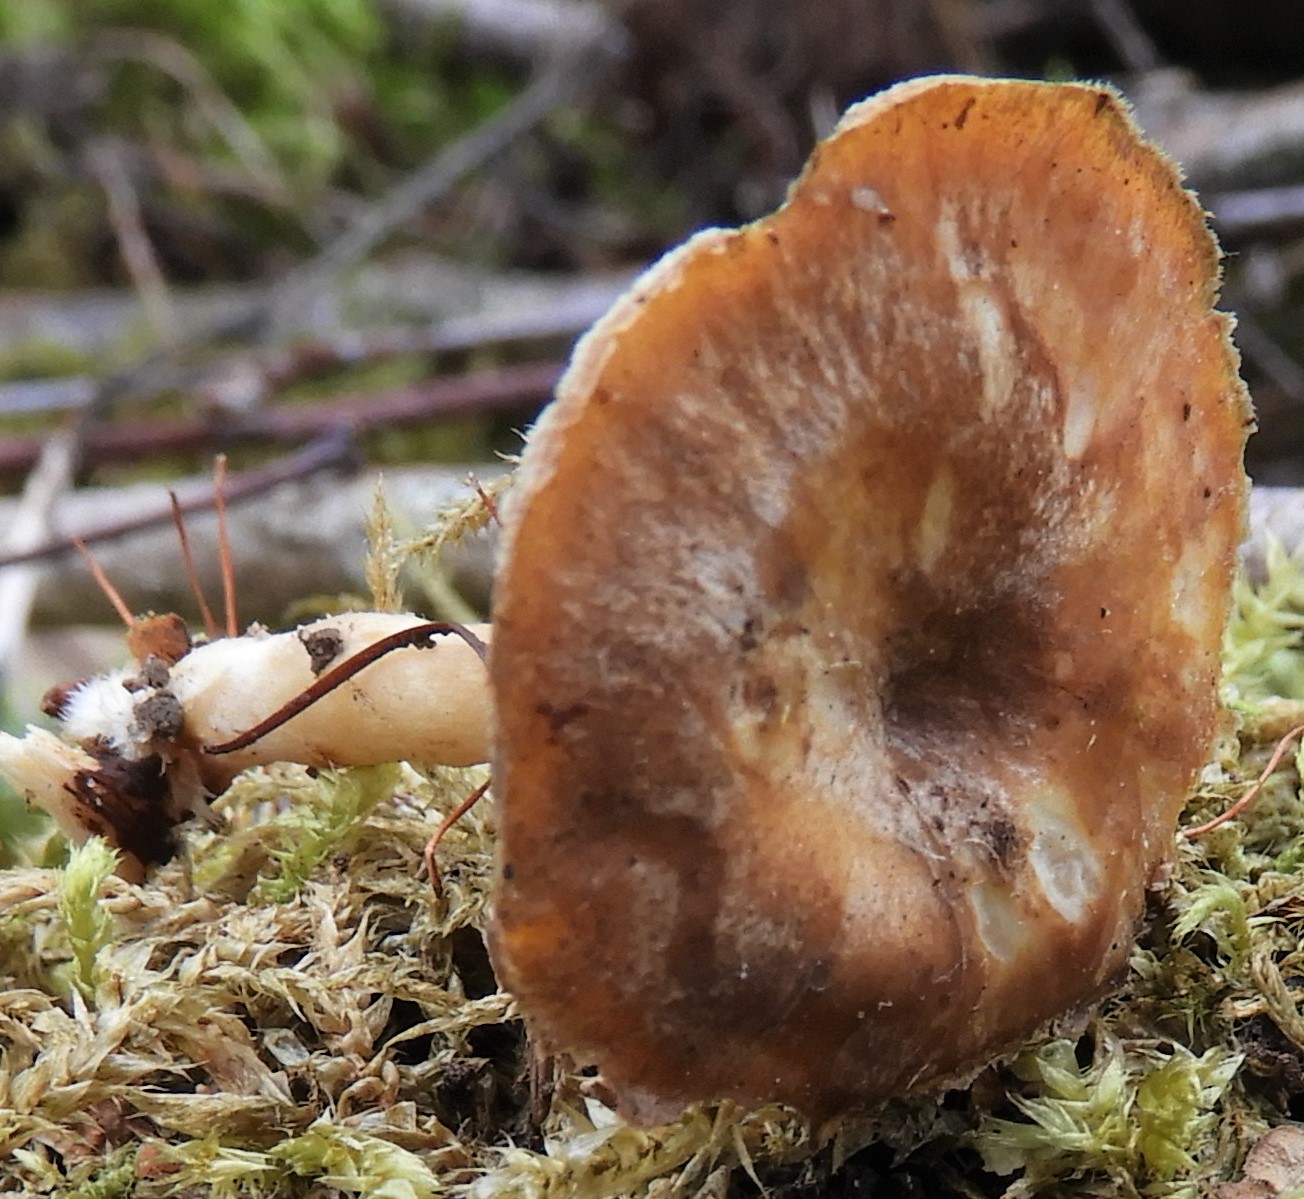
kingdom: Fungi
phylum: Basidiomycota
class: Agaricomycetes
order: Polyporales
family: Polyporaceae
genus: Lentinus
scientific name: Lentinus brumalis
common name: vinter-stilkporesvamp
